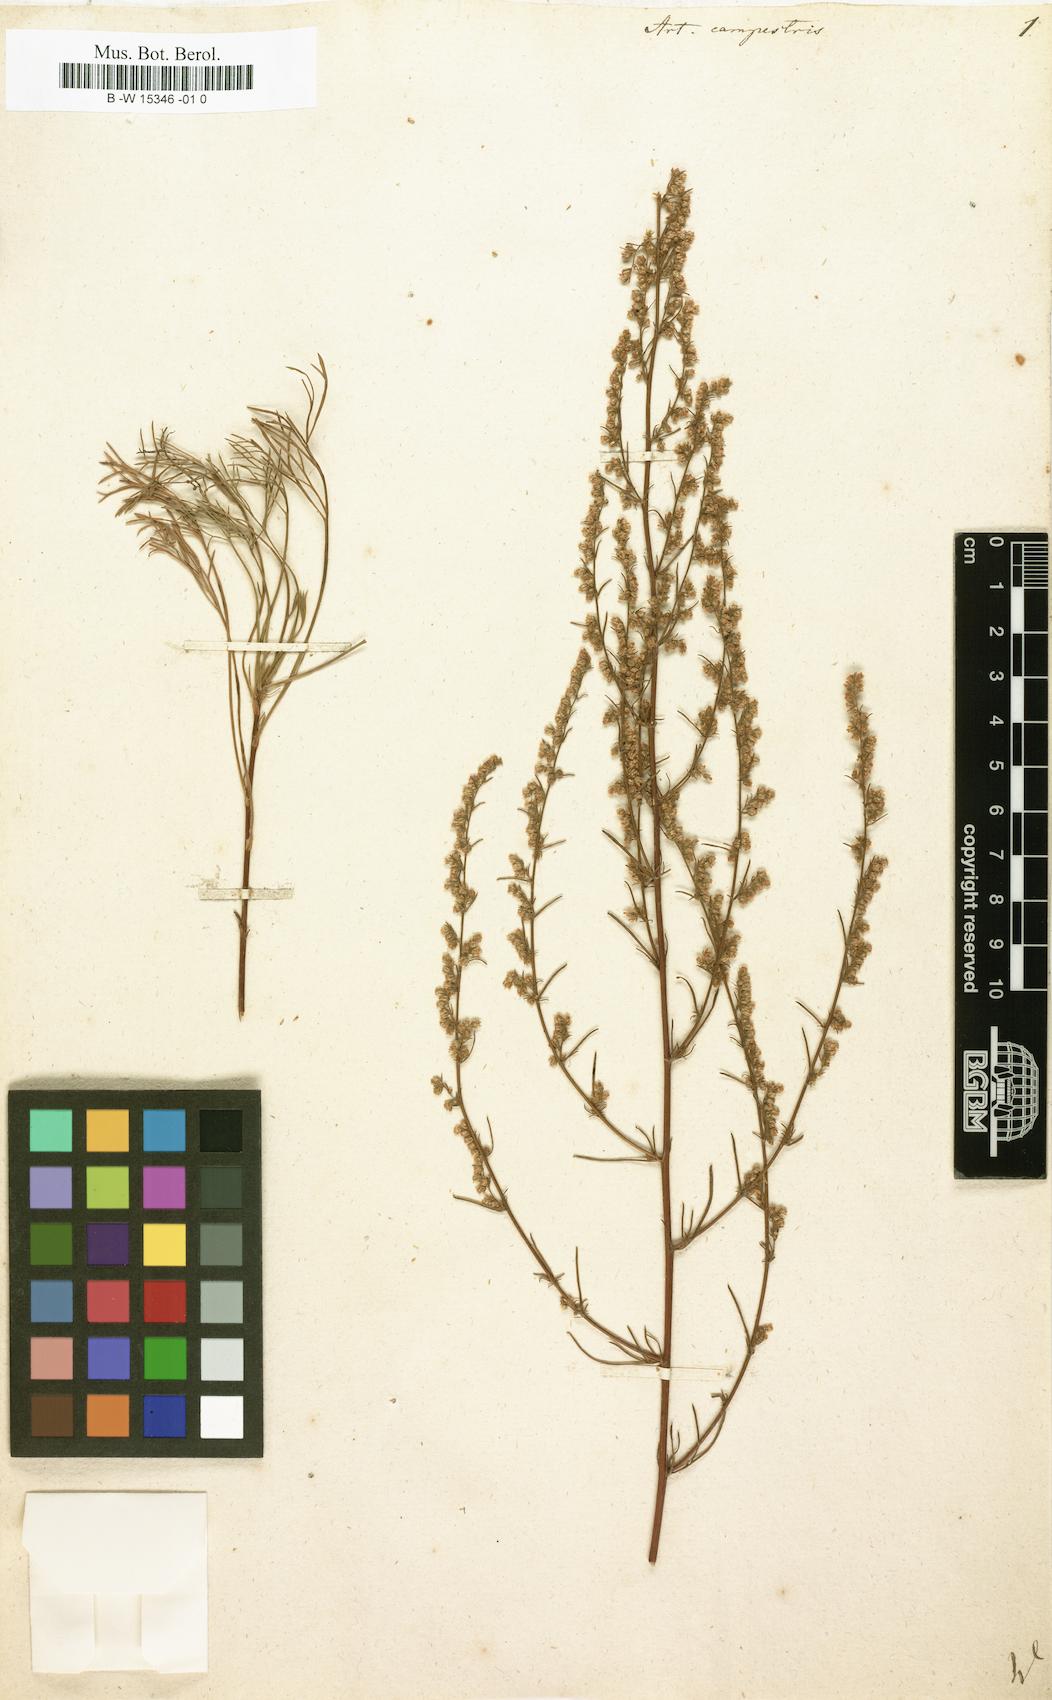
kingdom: Plantae
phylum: Tracheophyta
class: Magnoliopsida
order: Asterales
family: Asteraceae
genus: Artemisia
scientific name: Artemisia campestris
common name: Field wormwood
